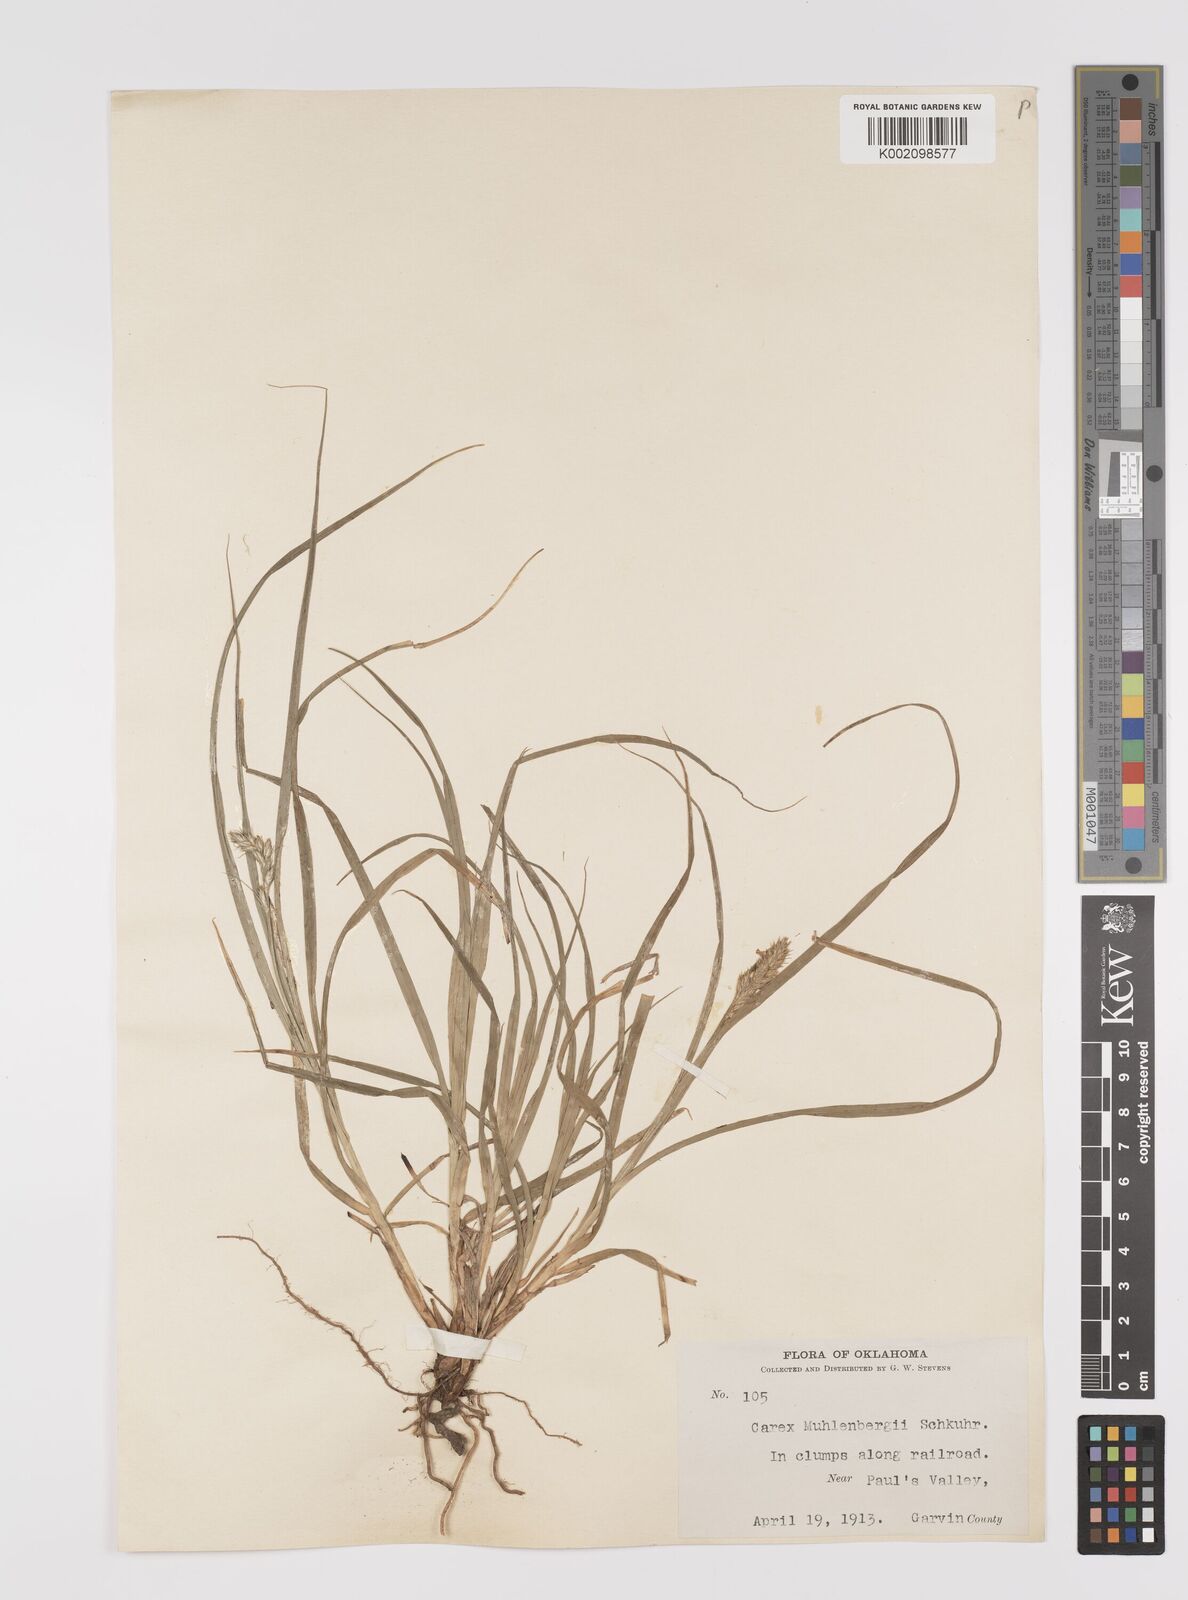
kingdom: Plantae
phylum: Tracheophyta
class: Liliopsida
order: Poales
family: Cyperaceae
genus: Carex
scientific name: Carex vulpinoidea
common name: American fox-sedge
